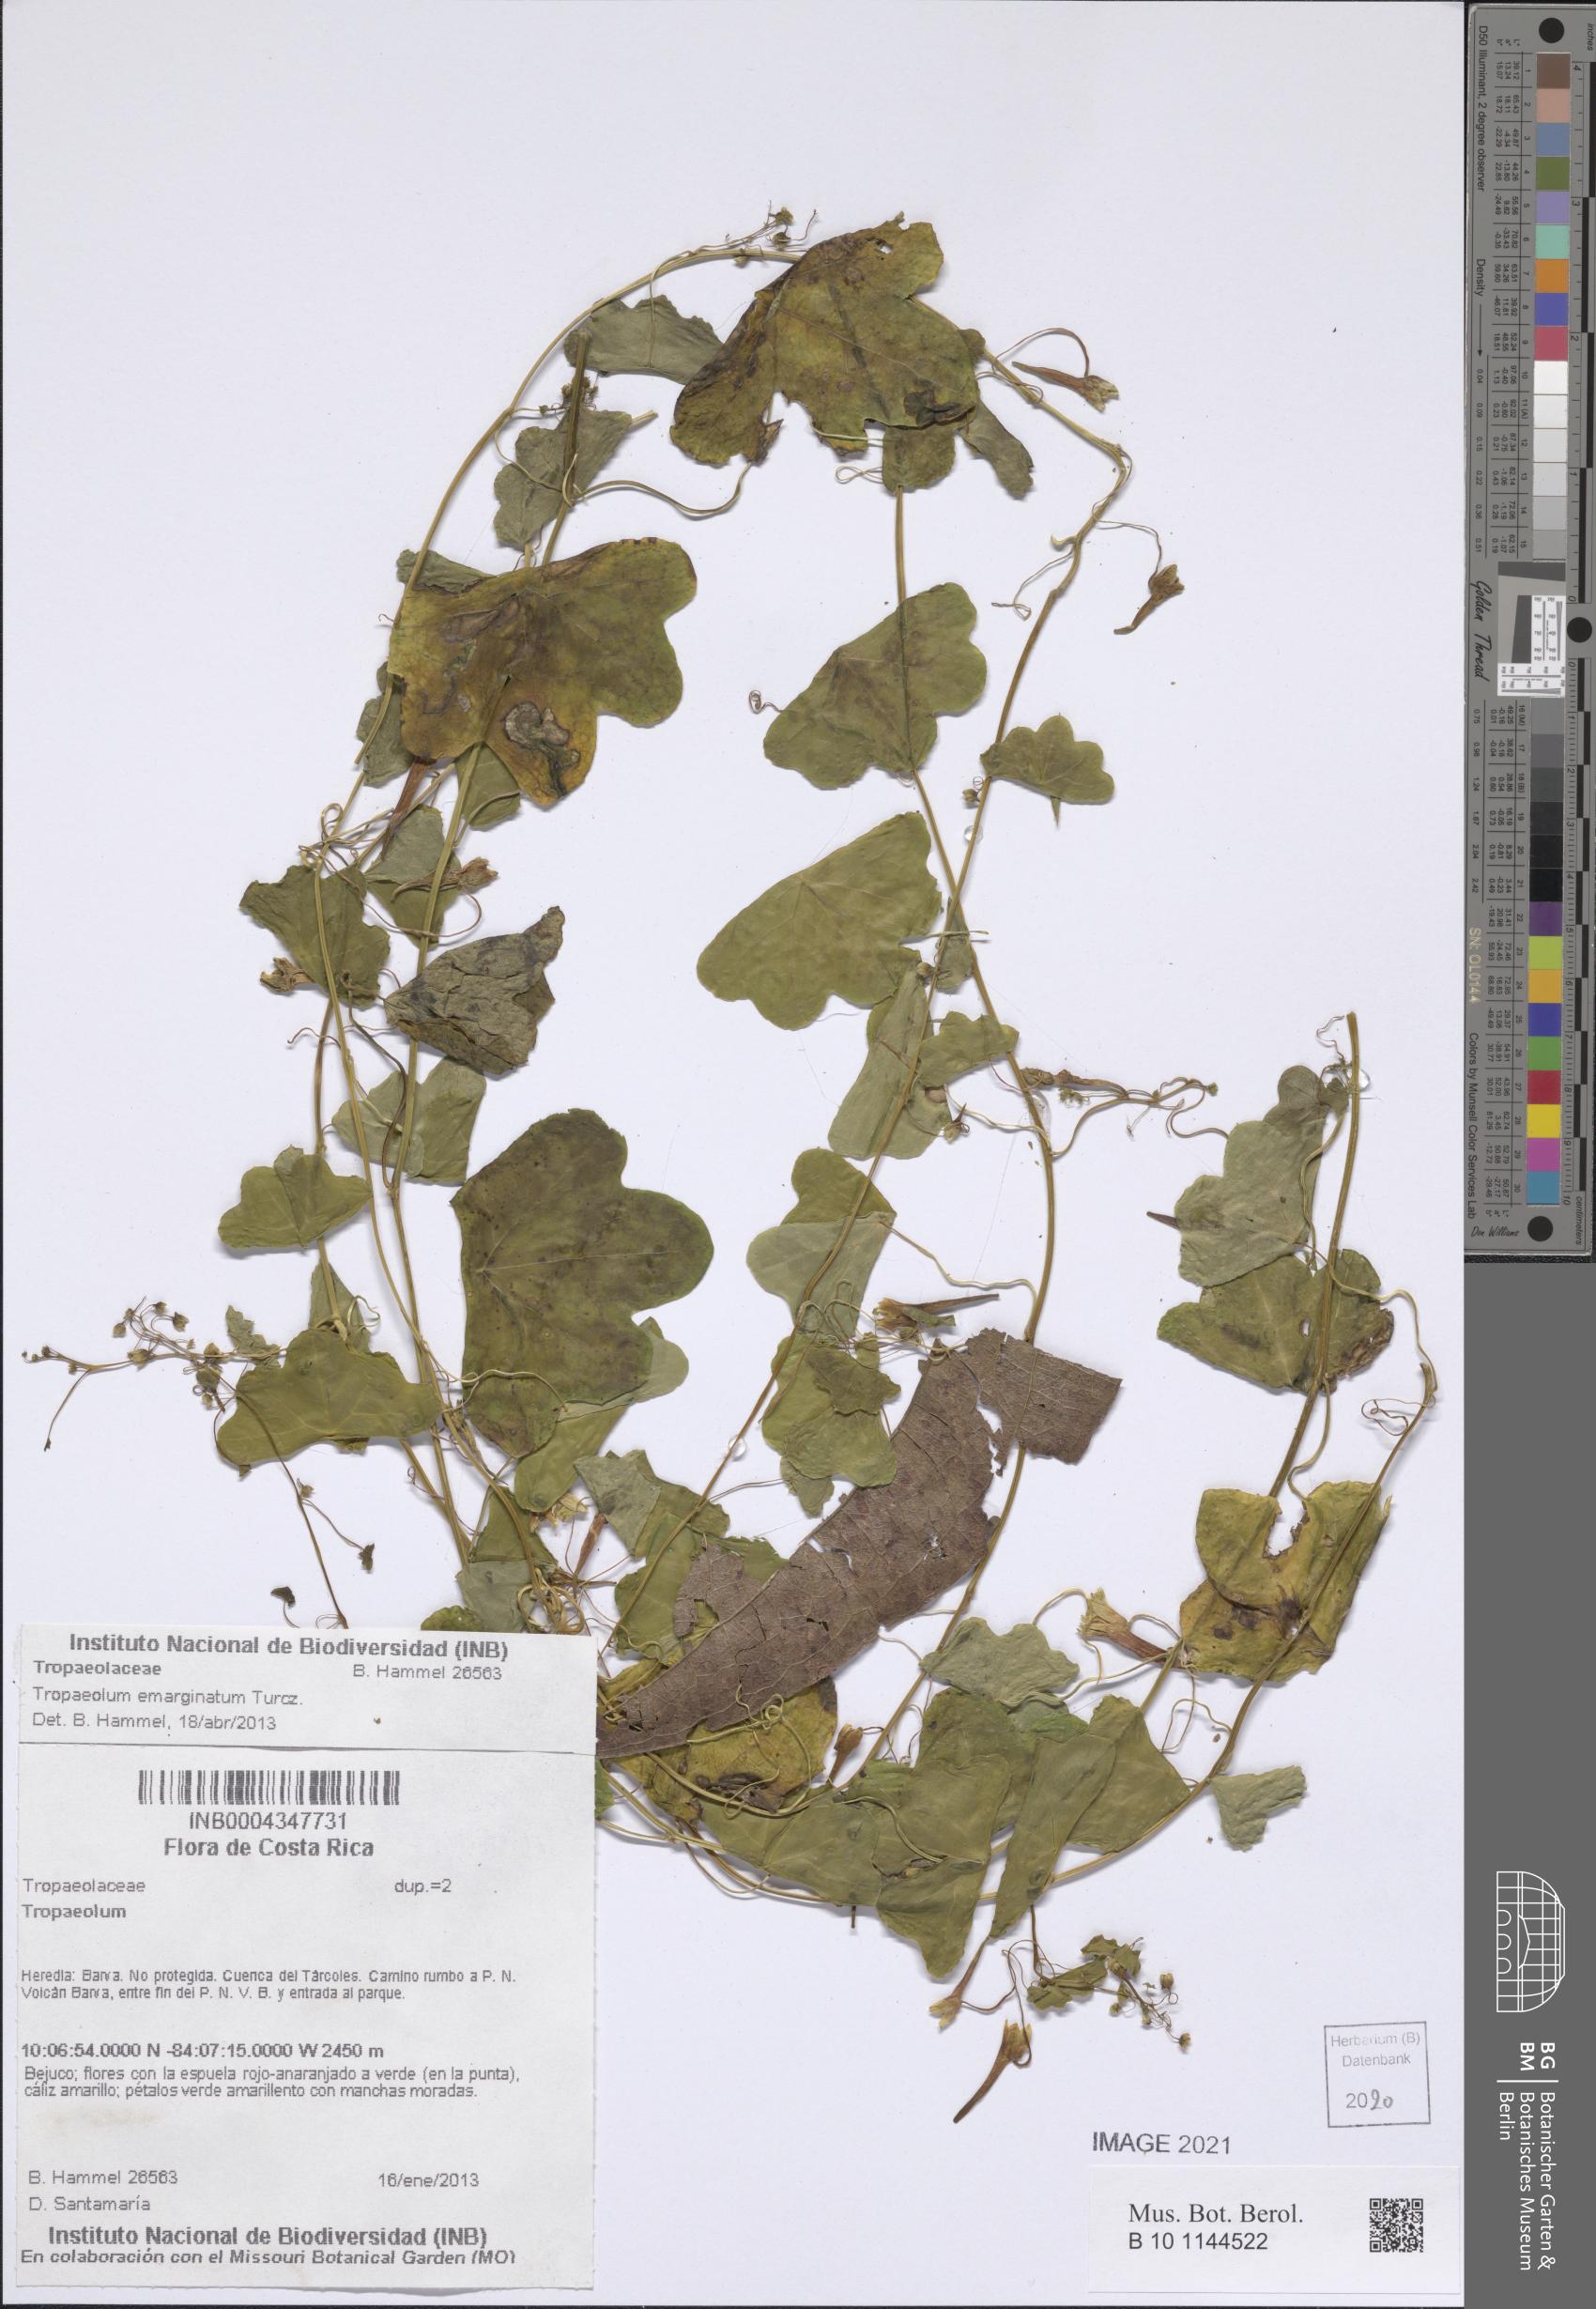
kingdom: Plantae
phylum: Tracheophyta
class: Magnoliopsida
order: Brassicales
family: Tropaeolaceae
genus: Tropaeolum
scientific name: Tropaeolum emarginatum
